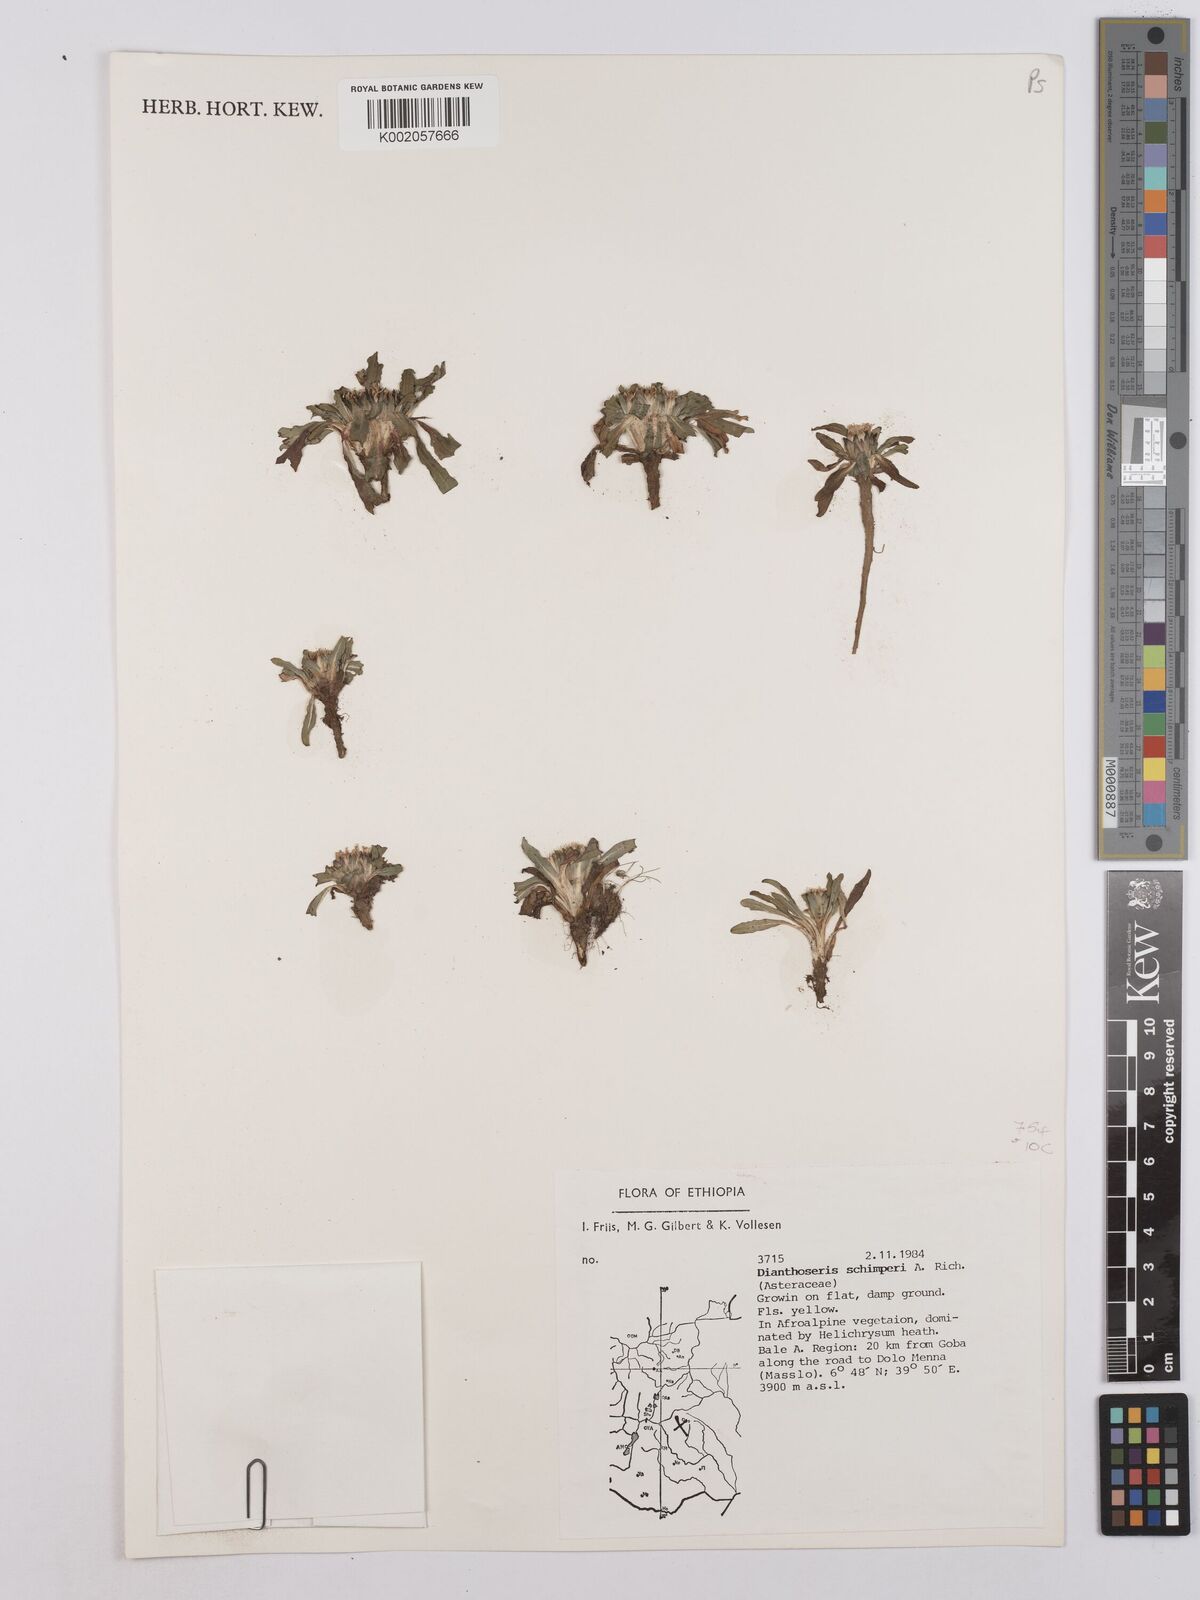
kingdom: Plantae
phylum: Tracheophyta
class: Magnoliopsida
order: Asterales
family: Asteraceae
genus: Crepis
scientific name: Crepis foetida
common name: Stinking hawk's-beard
